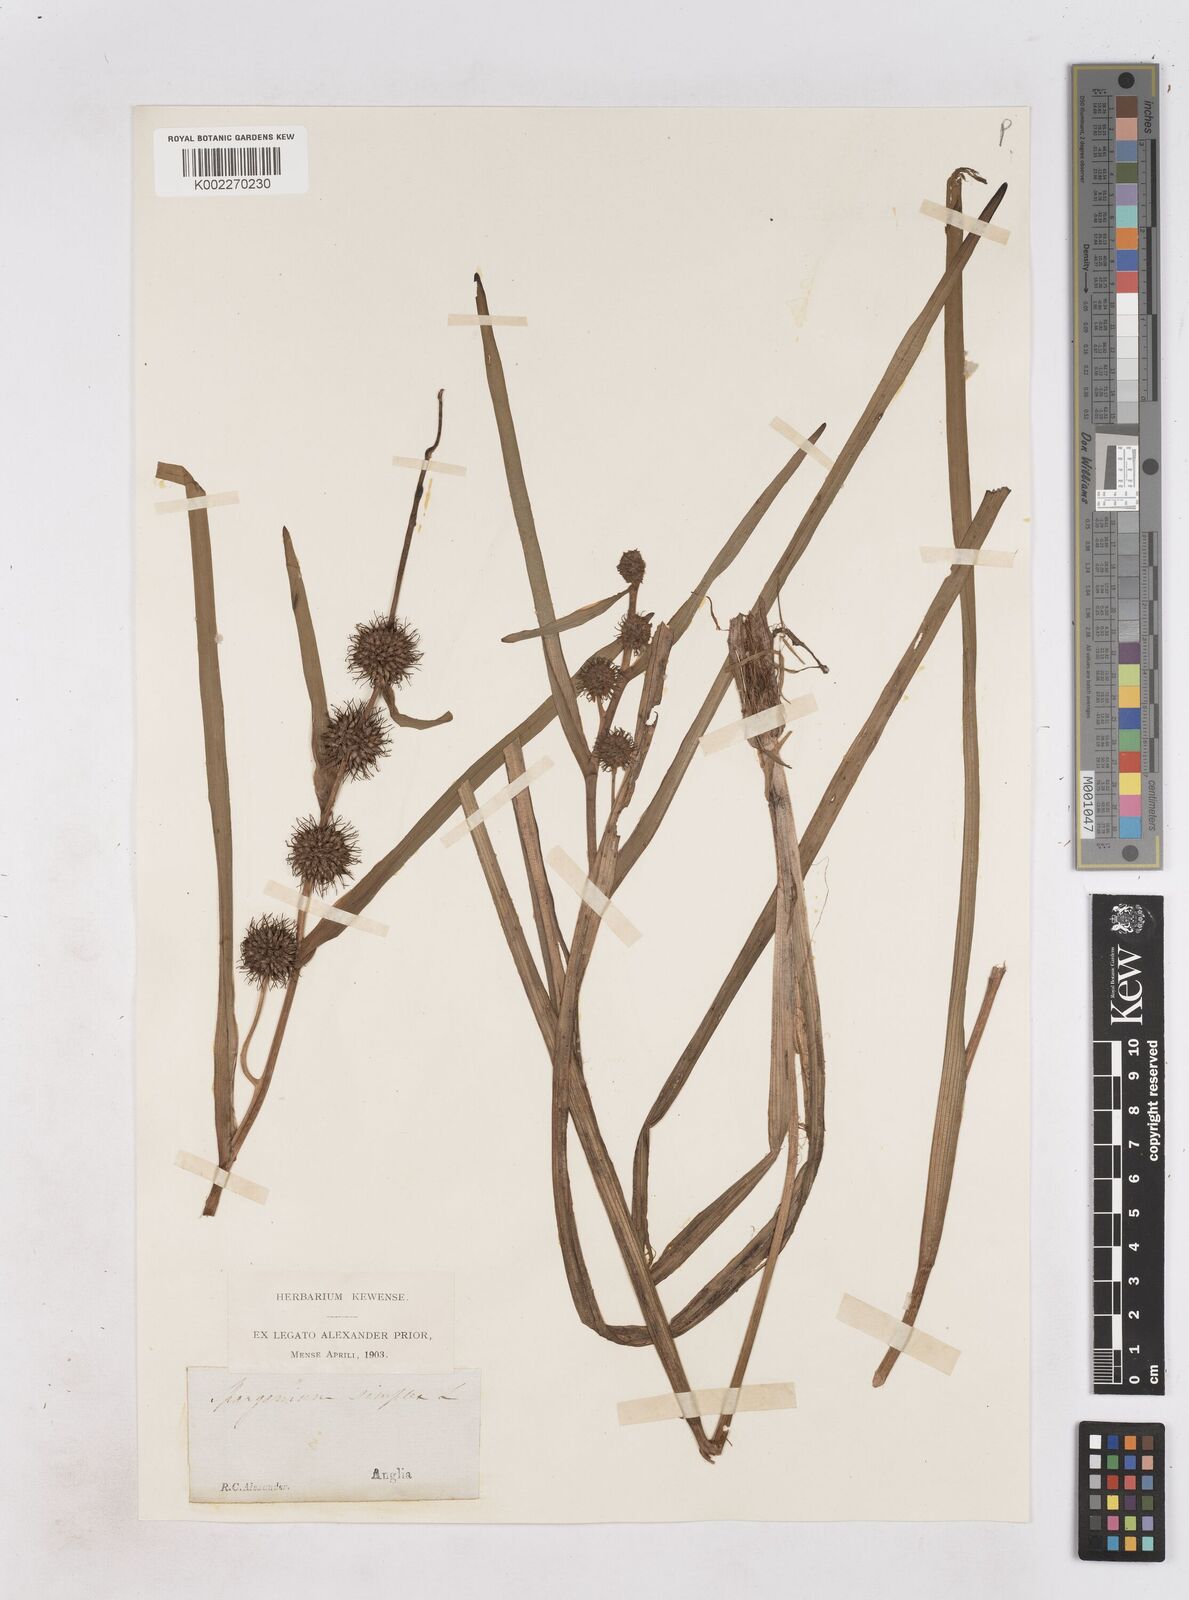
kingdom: Plantae
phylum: Tracheophyta
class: Liliopsida
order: Poales
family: Typhaceae
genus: Sparganium
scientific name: Sparganium emersum
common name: Unbranched bur-reed
